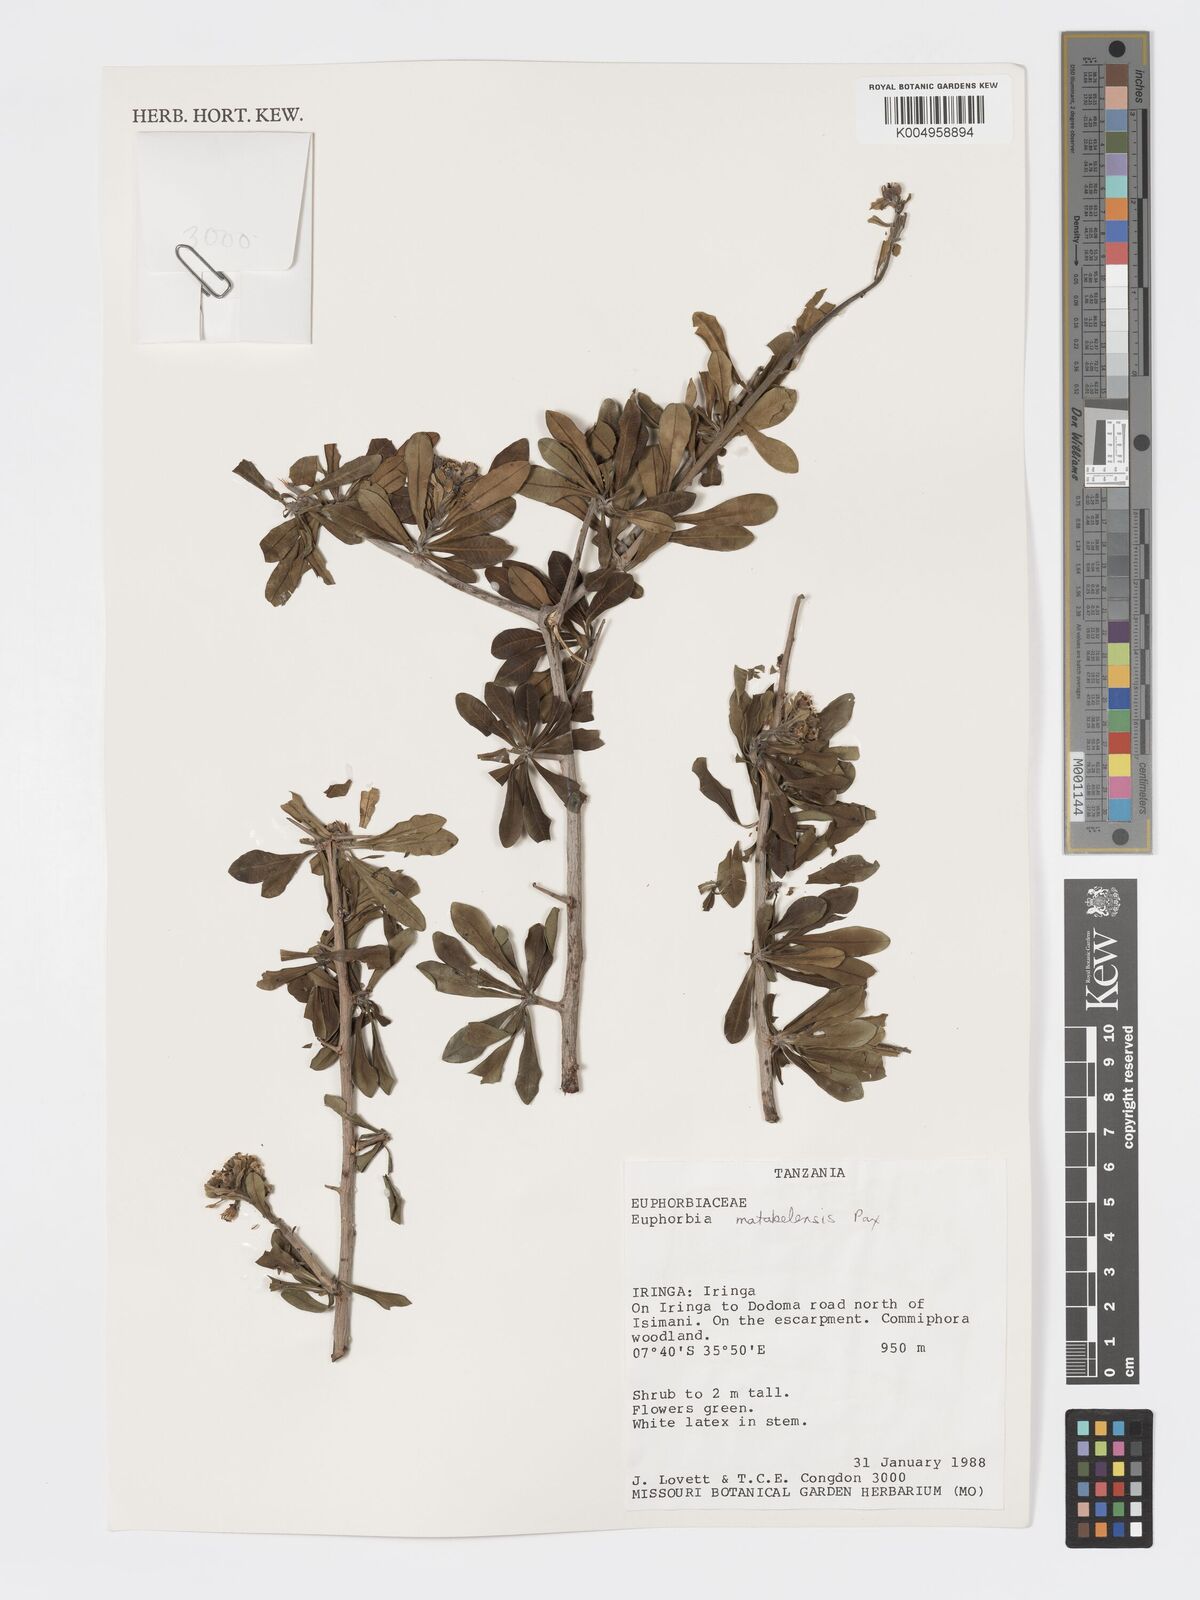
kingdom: Plantae
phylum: Tracheophyta
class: Magnoliopsida
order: Malpighiales
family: Euphorbiaceae
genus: Euphorbia
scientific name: Euphorbia matabelensis
